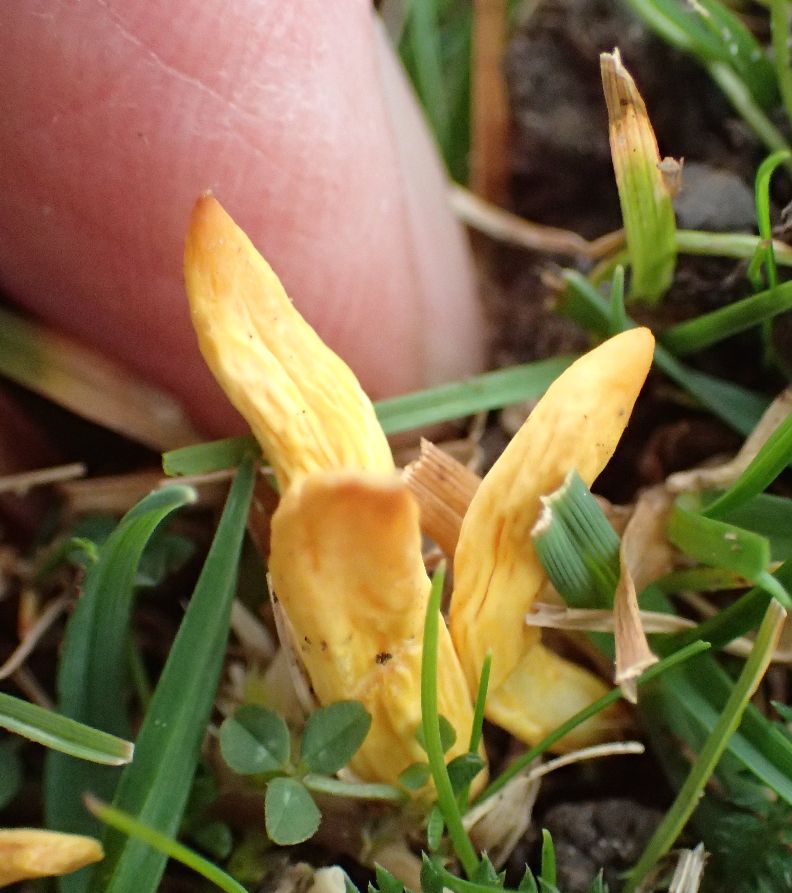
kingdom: Fungi
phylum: Basidiomycota
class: Agaricomycetes
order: Agaricales
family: Clavariaceae
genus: Clavulinopsis
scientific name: Clavulinopsis laeticolor
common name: flamme-køllesvamp
